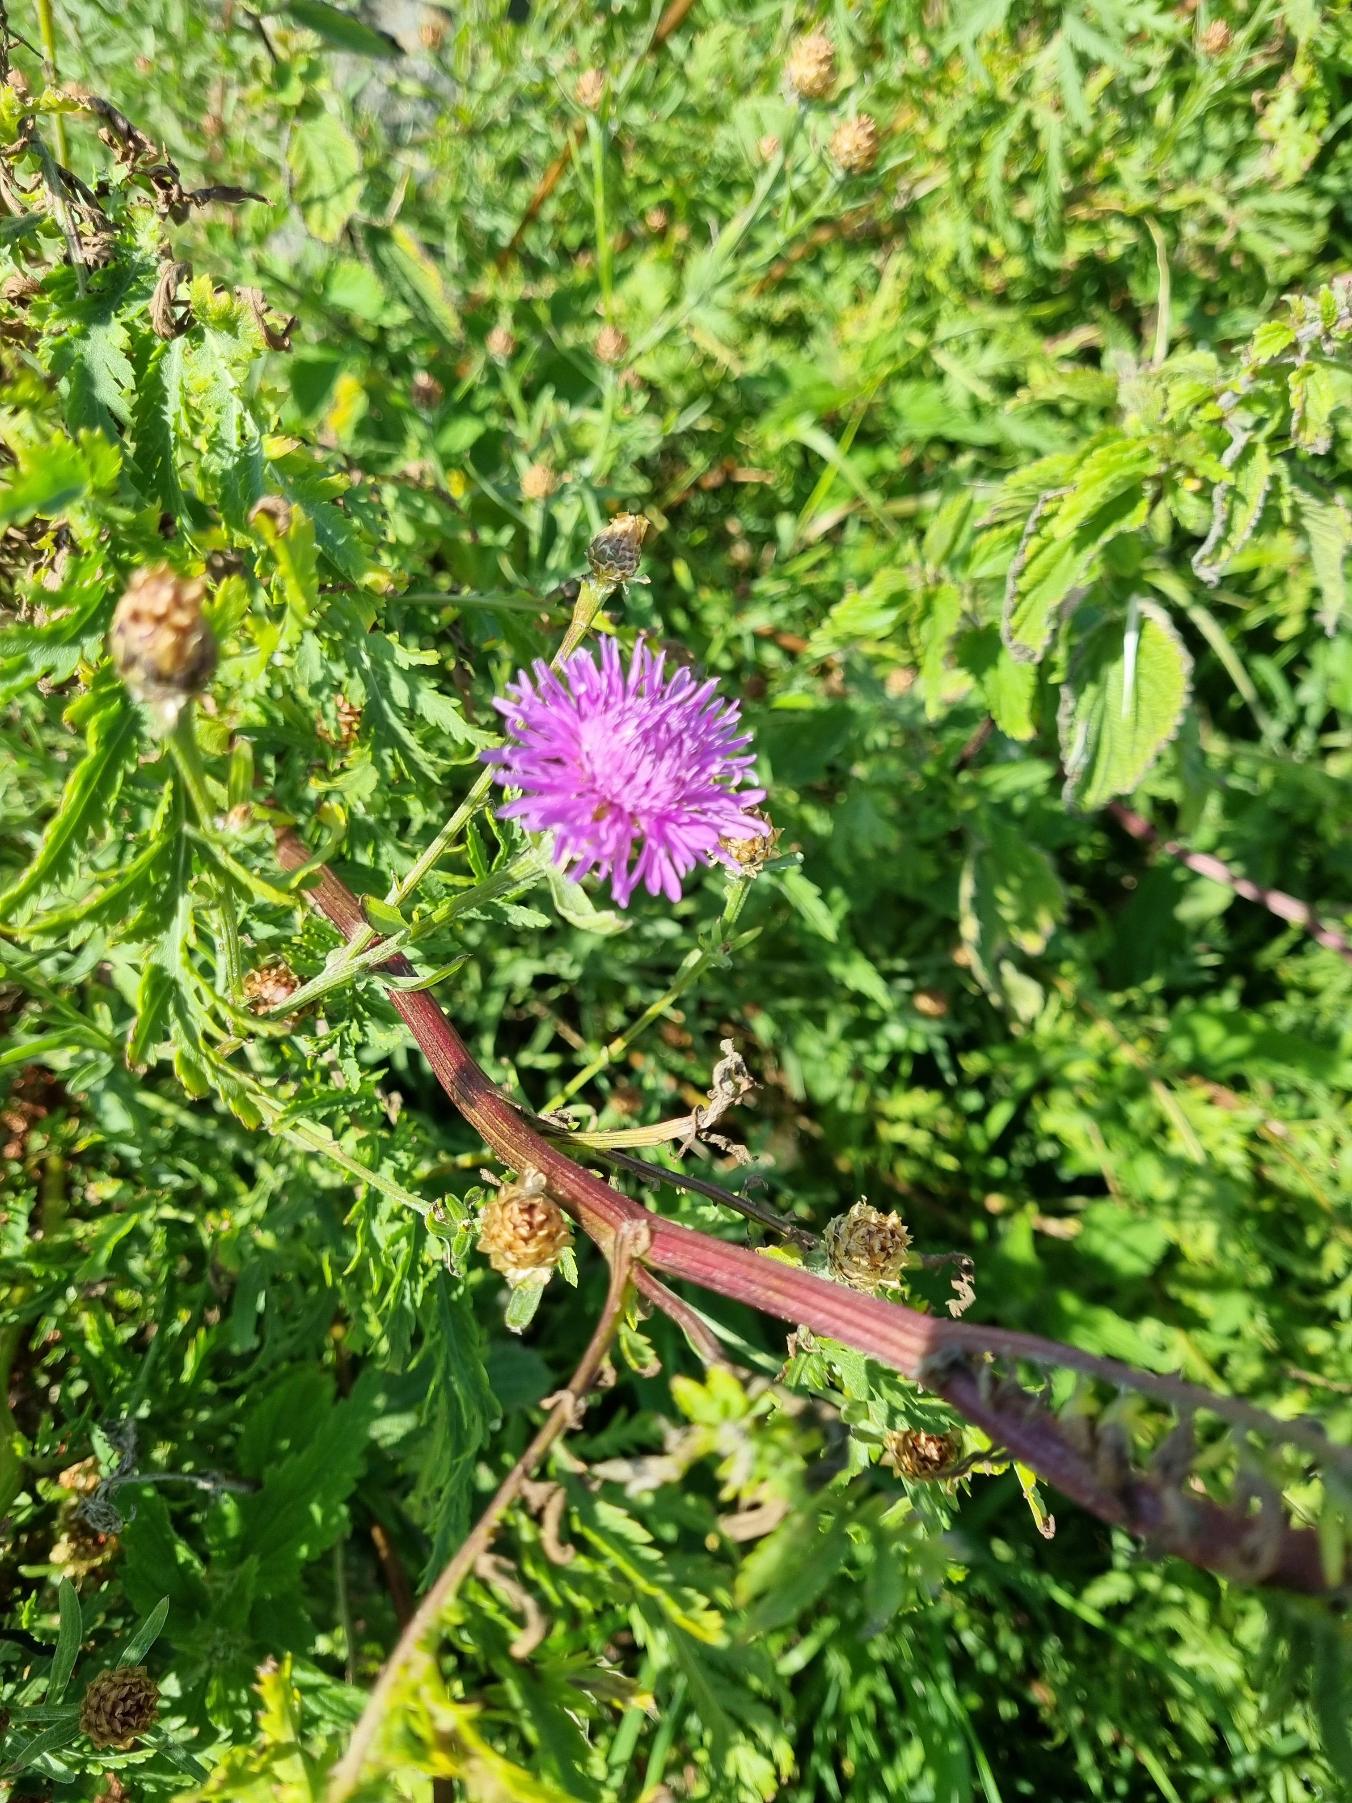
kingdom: Plantae
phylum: Tracheophyta
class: Magnoliopsida
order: Asterales
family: Asteraceae
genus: Centaurea
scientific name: Centaurea jacea
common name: Almindelig knopurt
